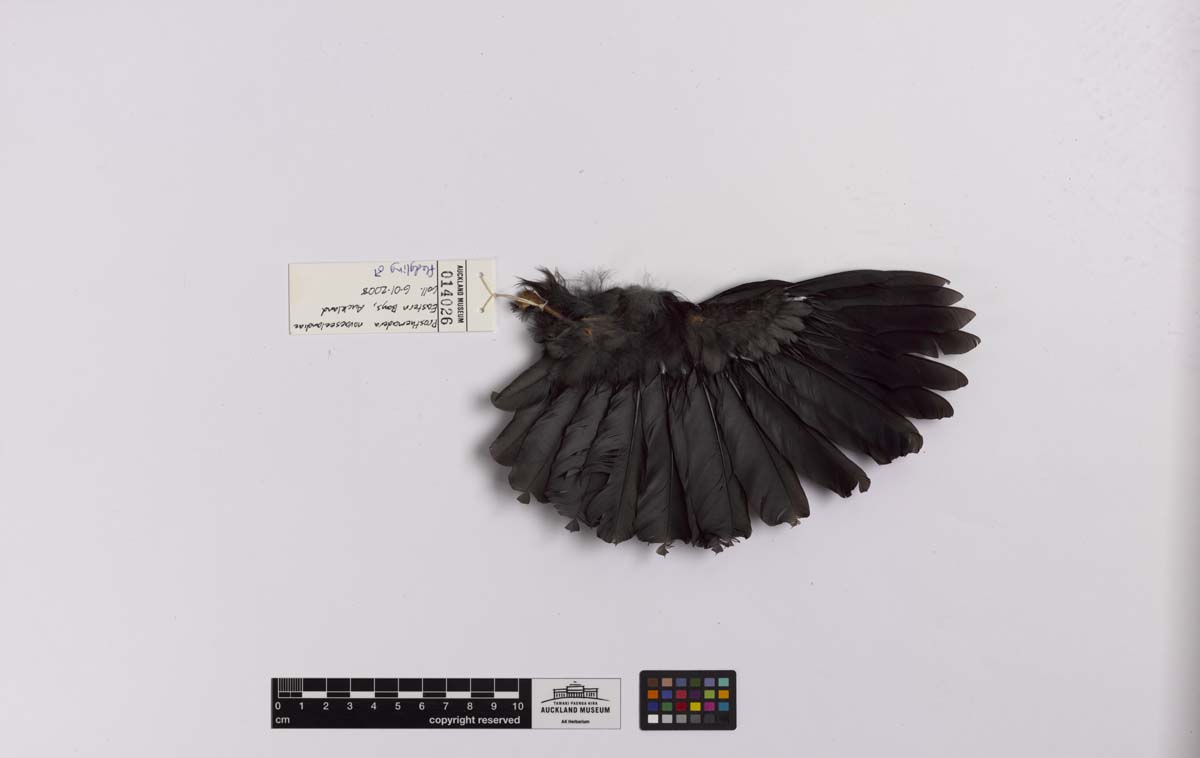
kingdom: Animalia
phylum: Chordata
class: Aves
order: Passeriformes
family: Meliphagidae
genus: Prosthemadera
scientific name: Prosthemadera novaeseelandiae
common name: Tui
